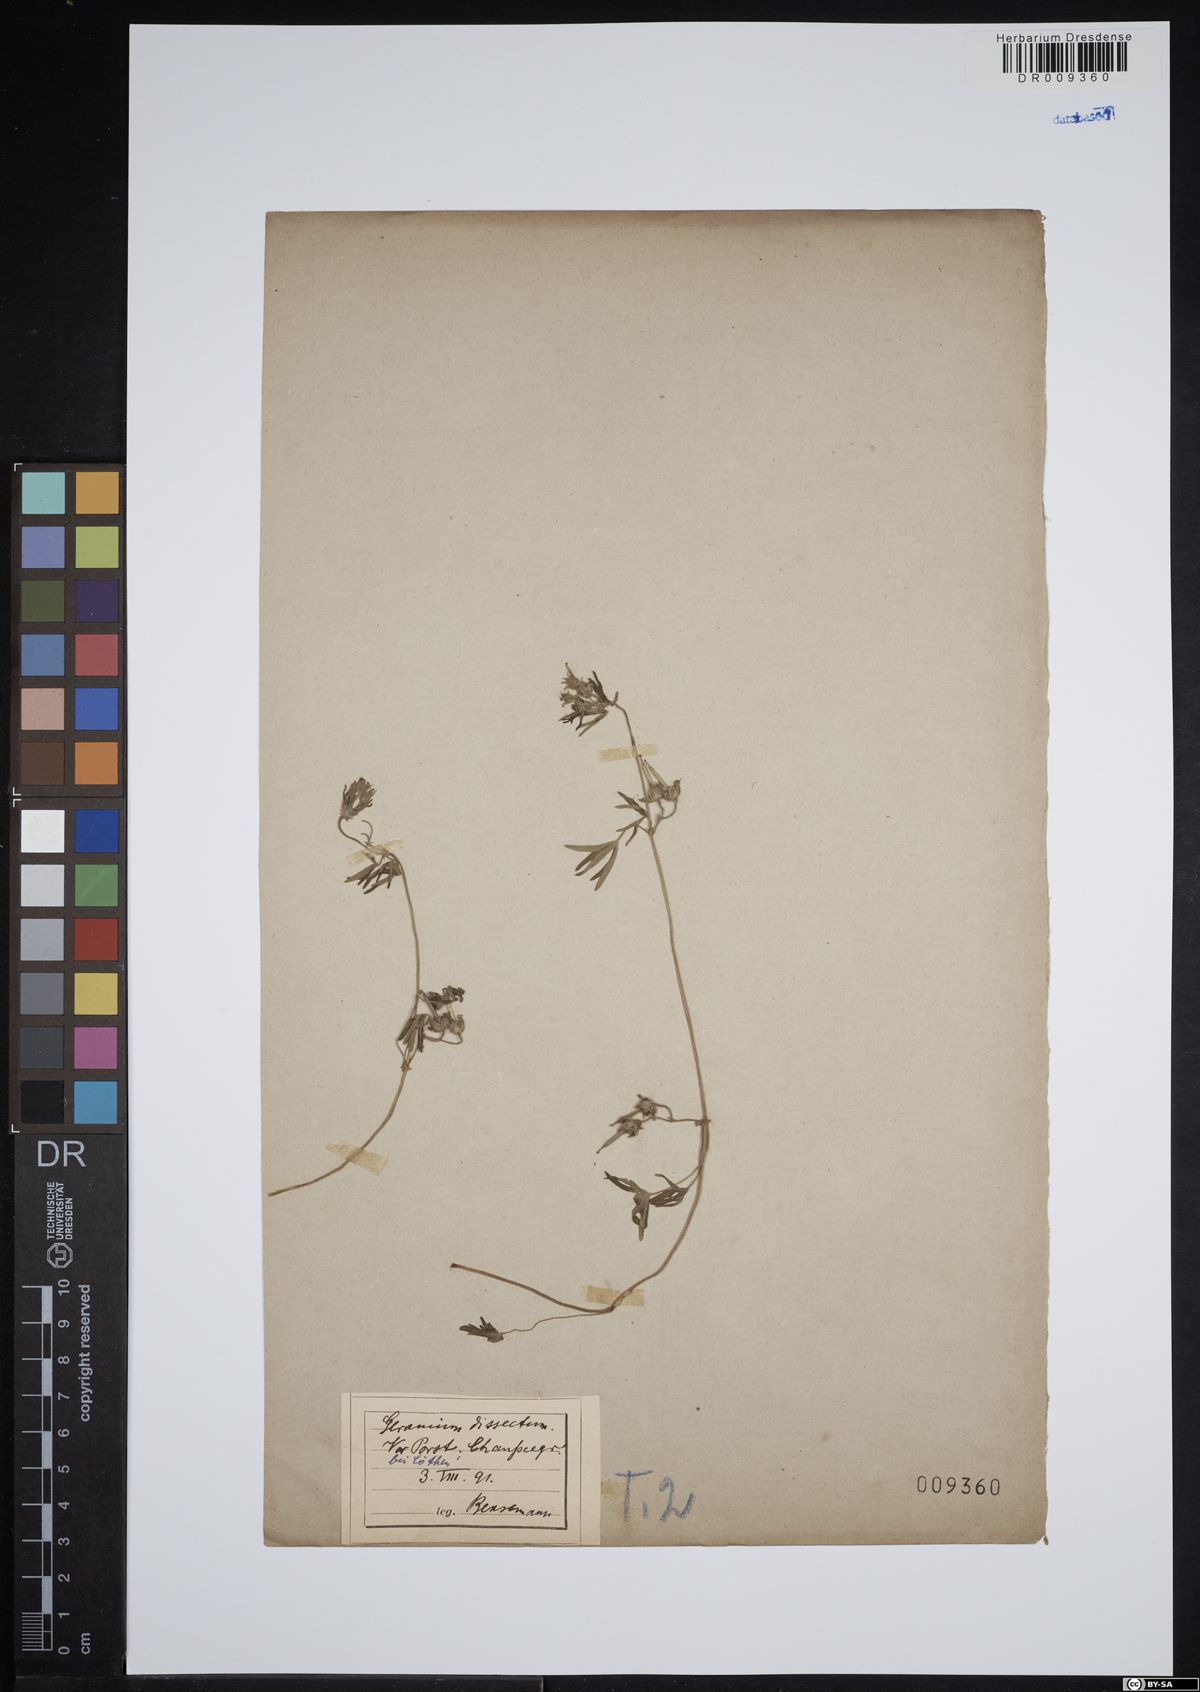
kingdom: Plantae
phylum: Tracheophyta
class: Magnoliopsida
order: Geraniales
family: Geraniaceae
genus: Geranium
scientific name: Geranium dissectum
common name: Cut-leaved crane's-bill
